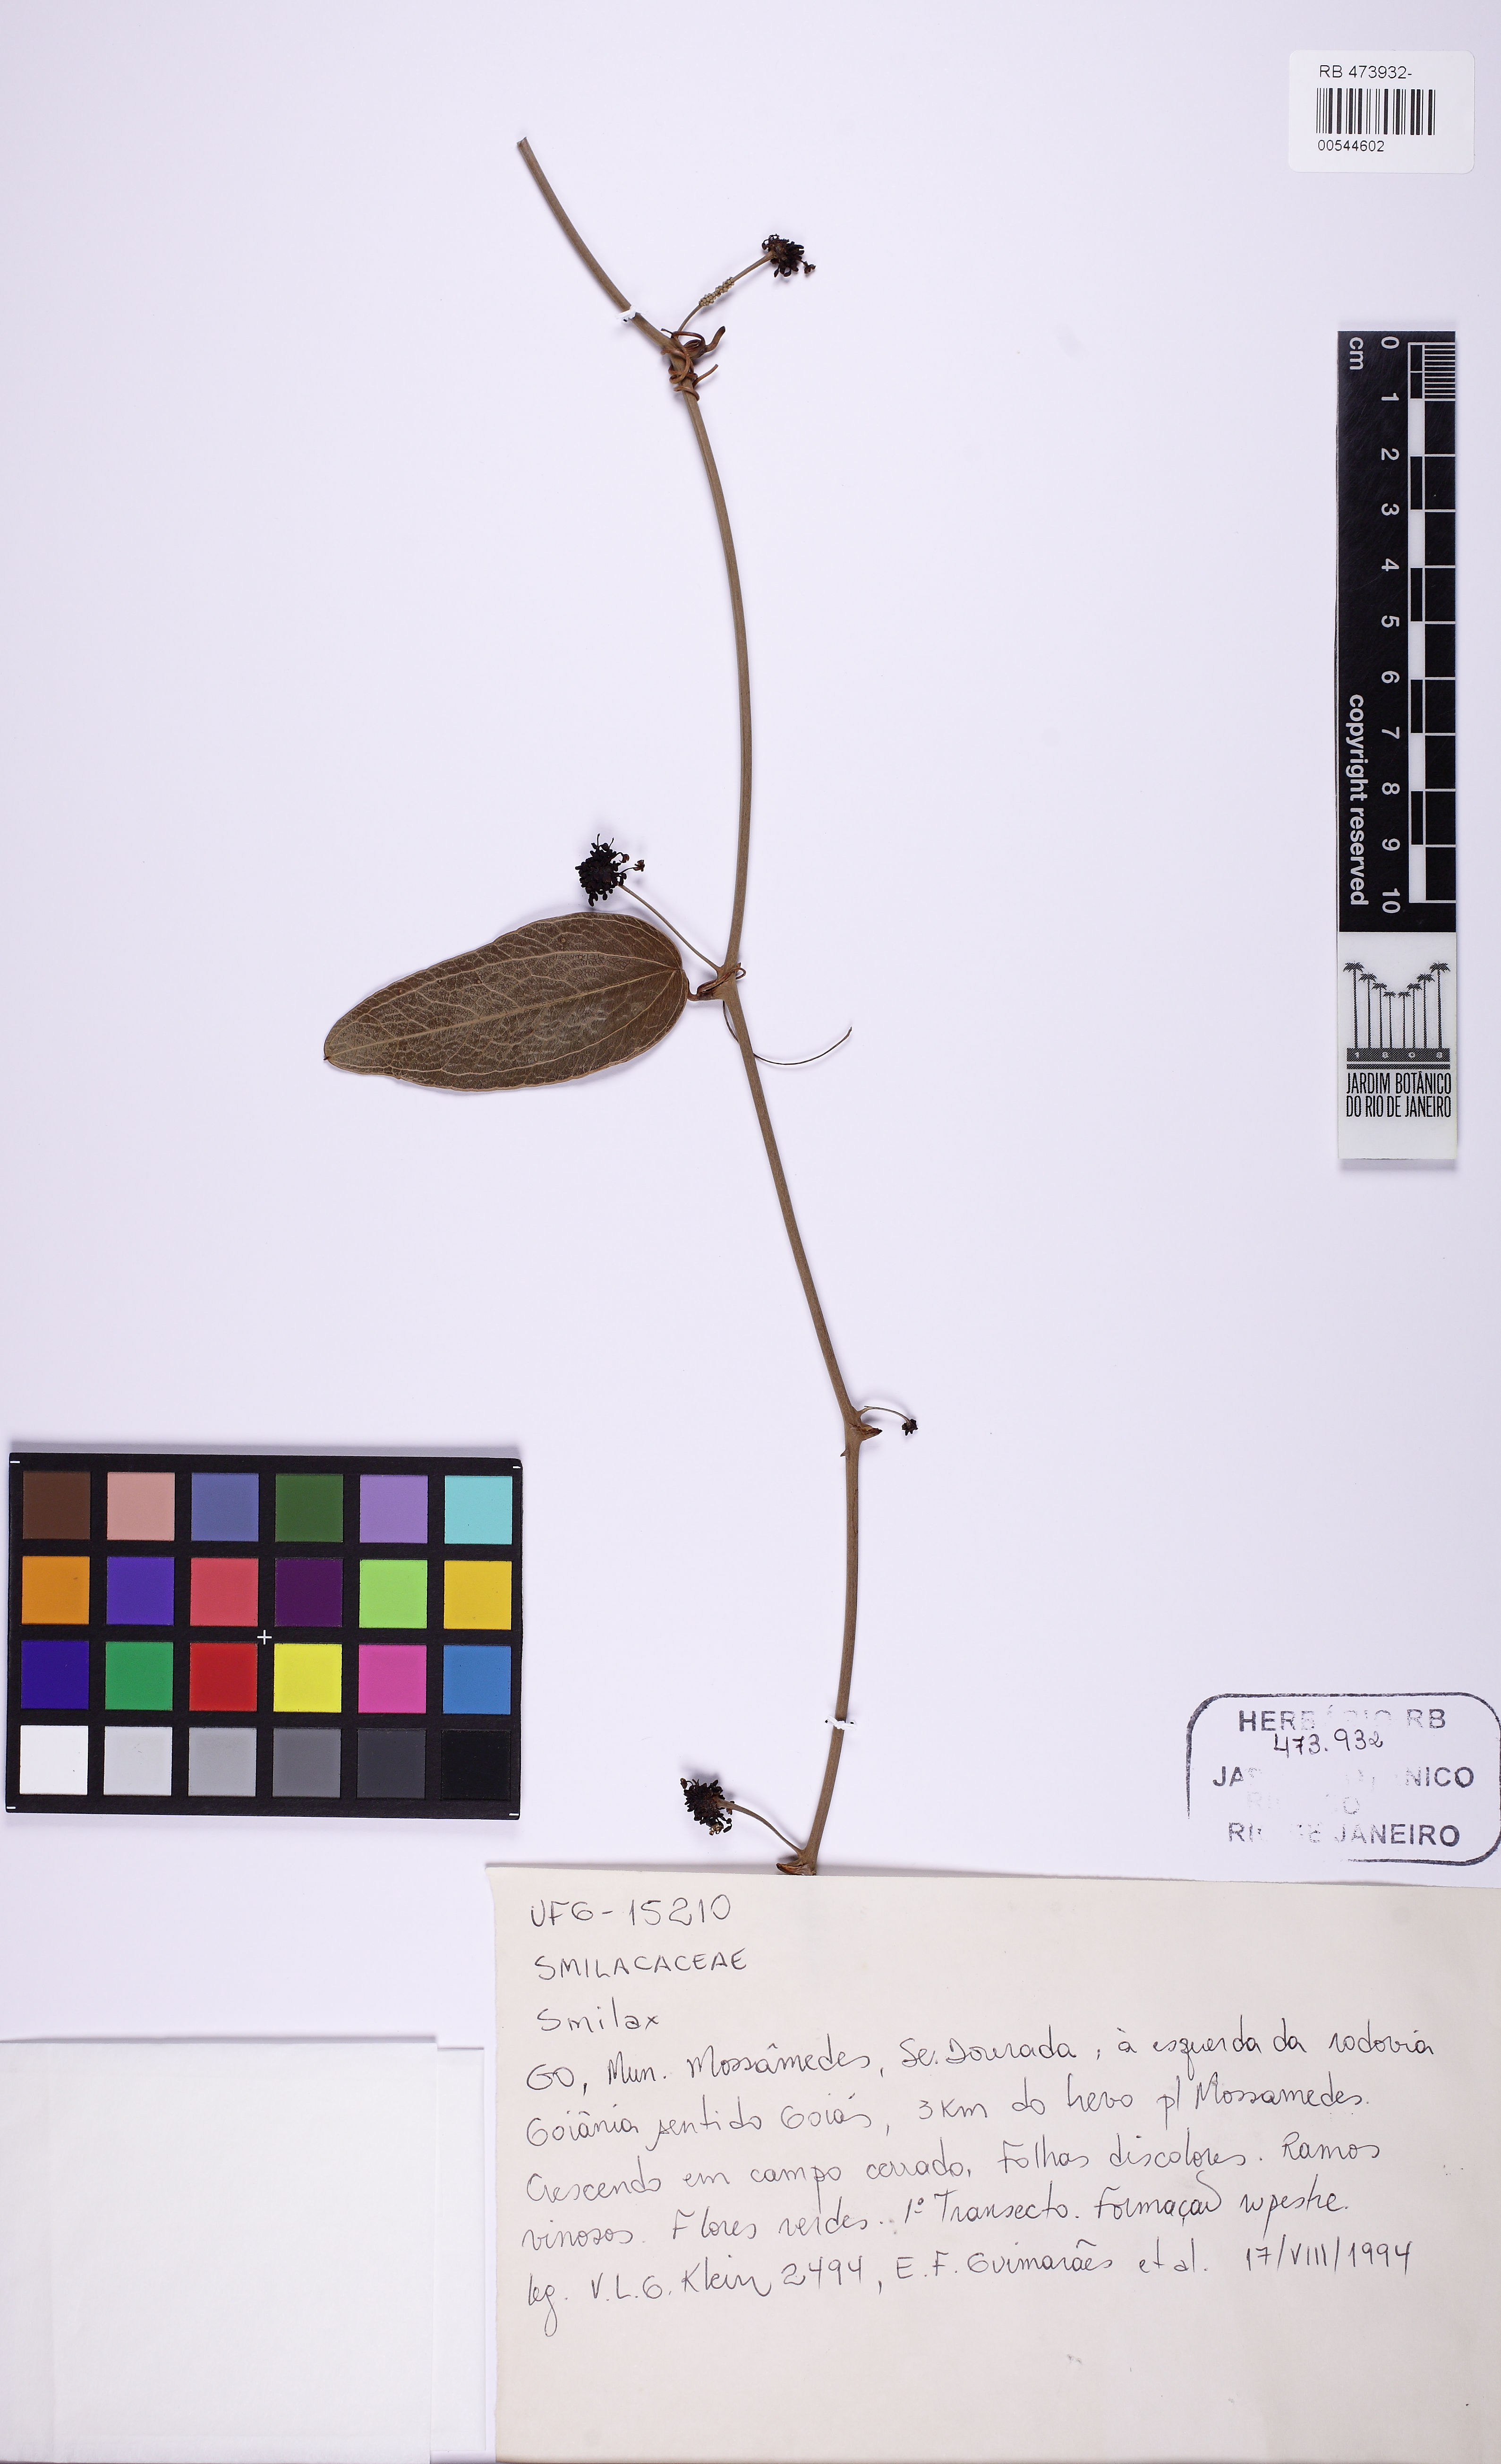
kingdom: Plantae
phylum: Tracheophyta
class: Liliopsida
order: Liliales
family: Smilacaceae
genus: Smilax
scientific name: Smilax
